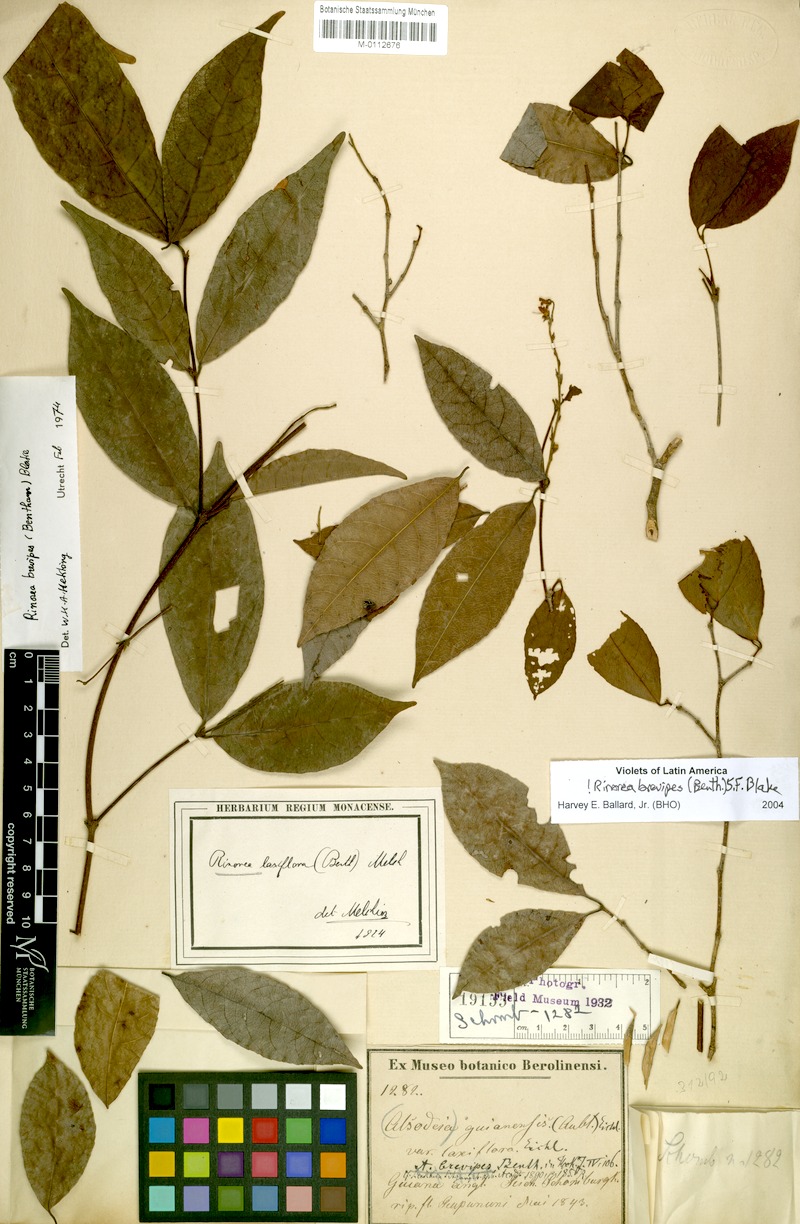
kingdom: Plantae
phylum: Tracheophyta
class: Magnoliopsida
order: Malpighiales
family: Violaceae
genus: Rinorea
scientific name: Rinorea brevipes
